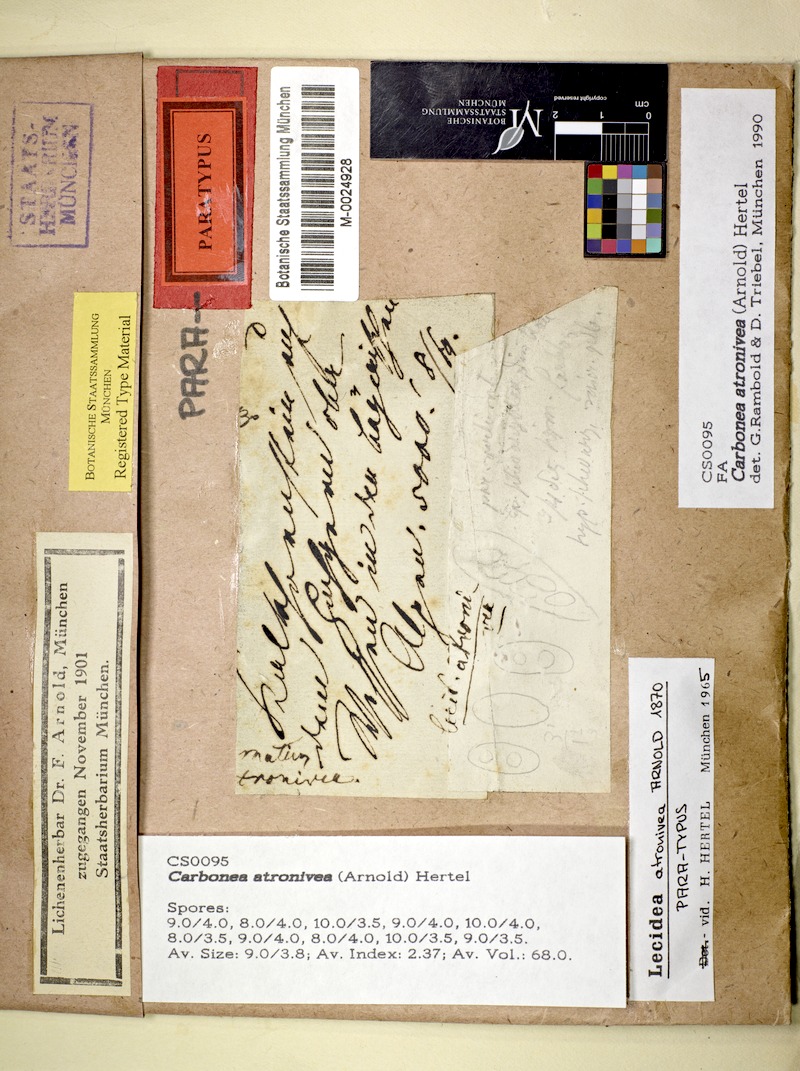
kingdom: Fungi
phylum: Ascomycota
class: Lecanoromycetes
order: Lecanorales
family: Lecanoraceae
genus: Carbonea
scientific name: Carbonea atronivea
